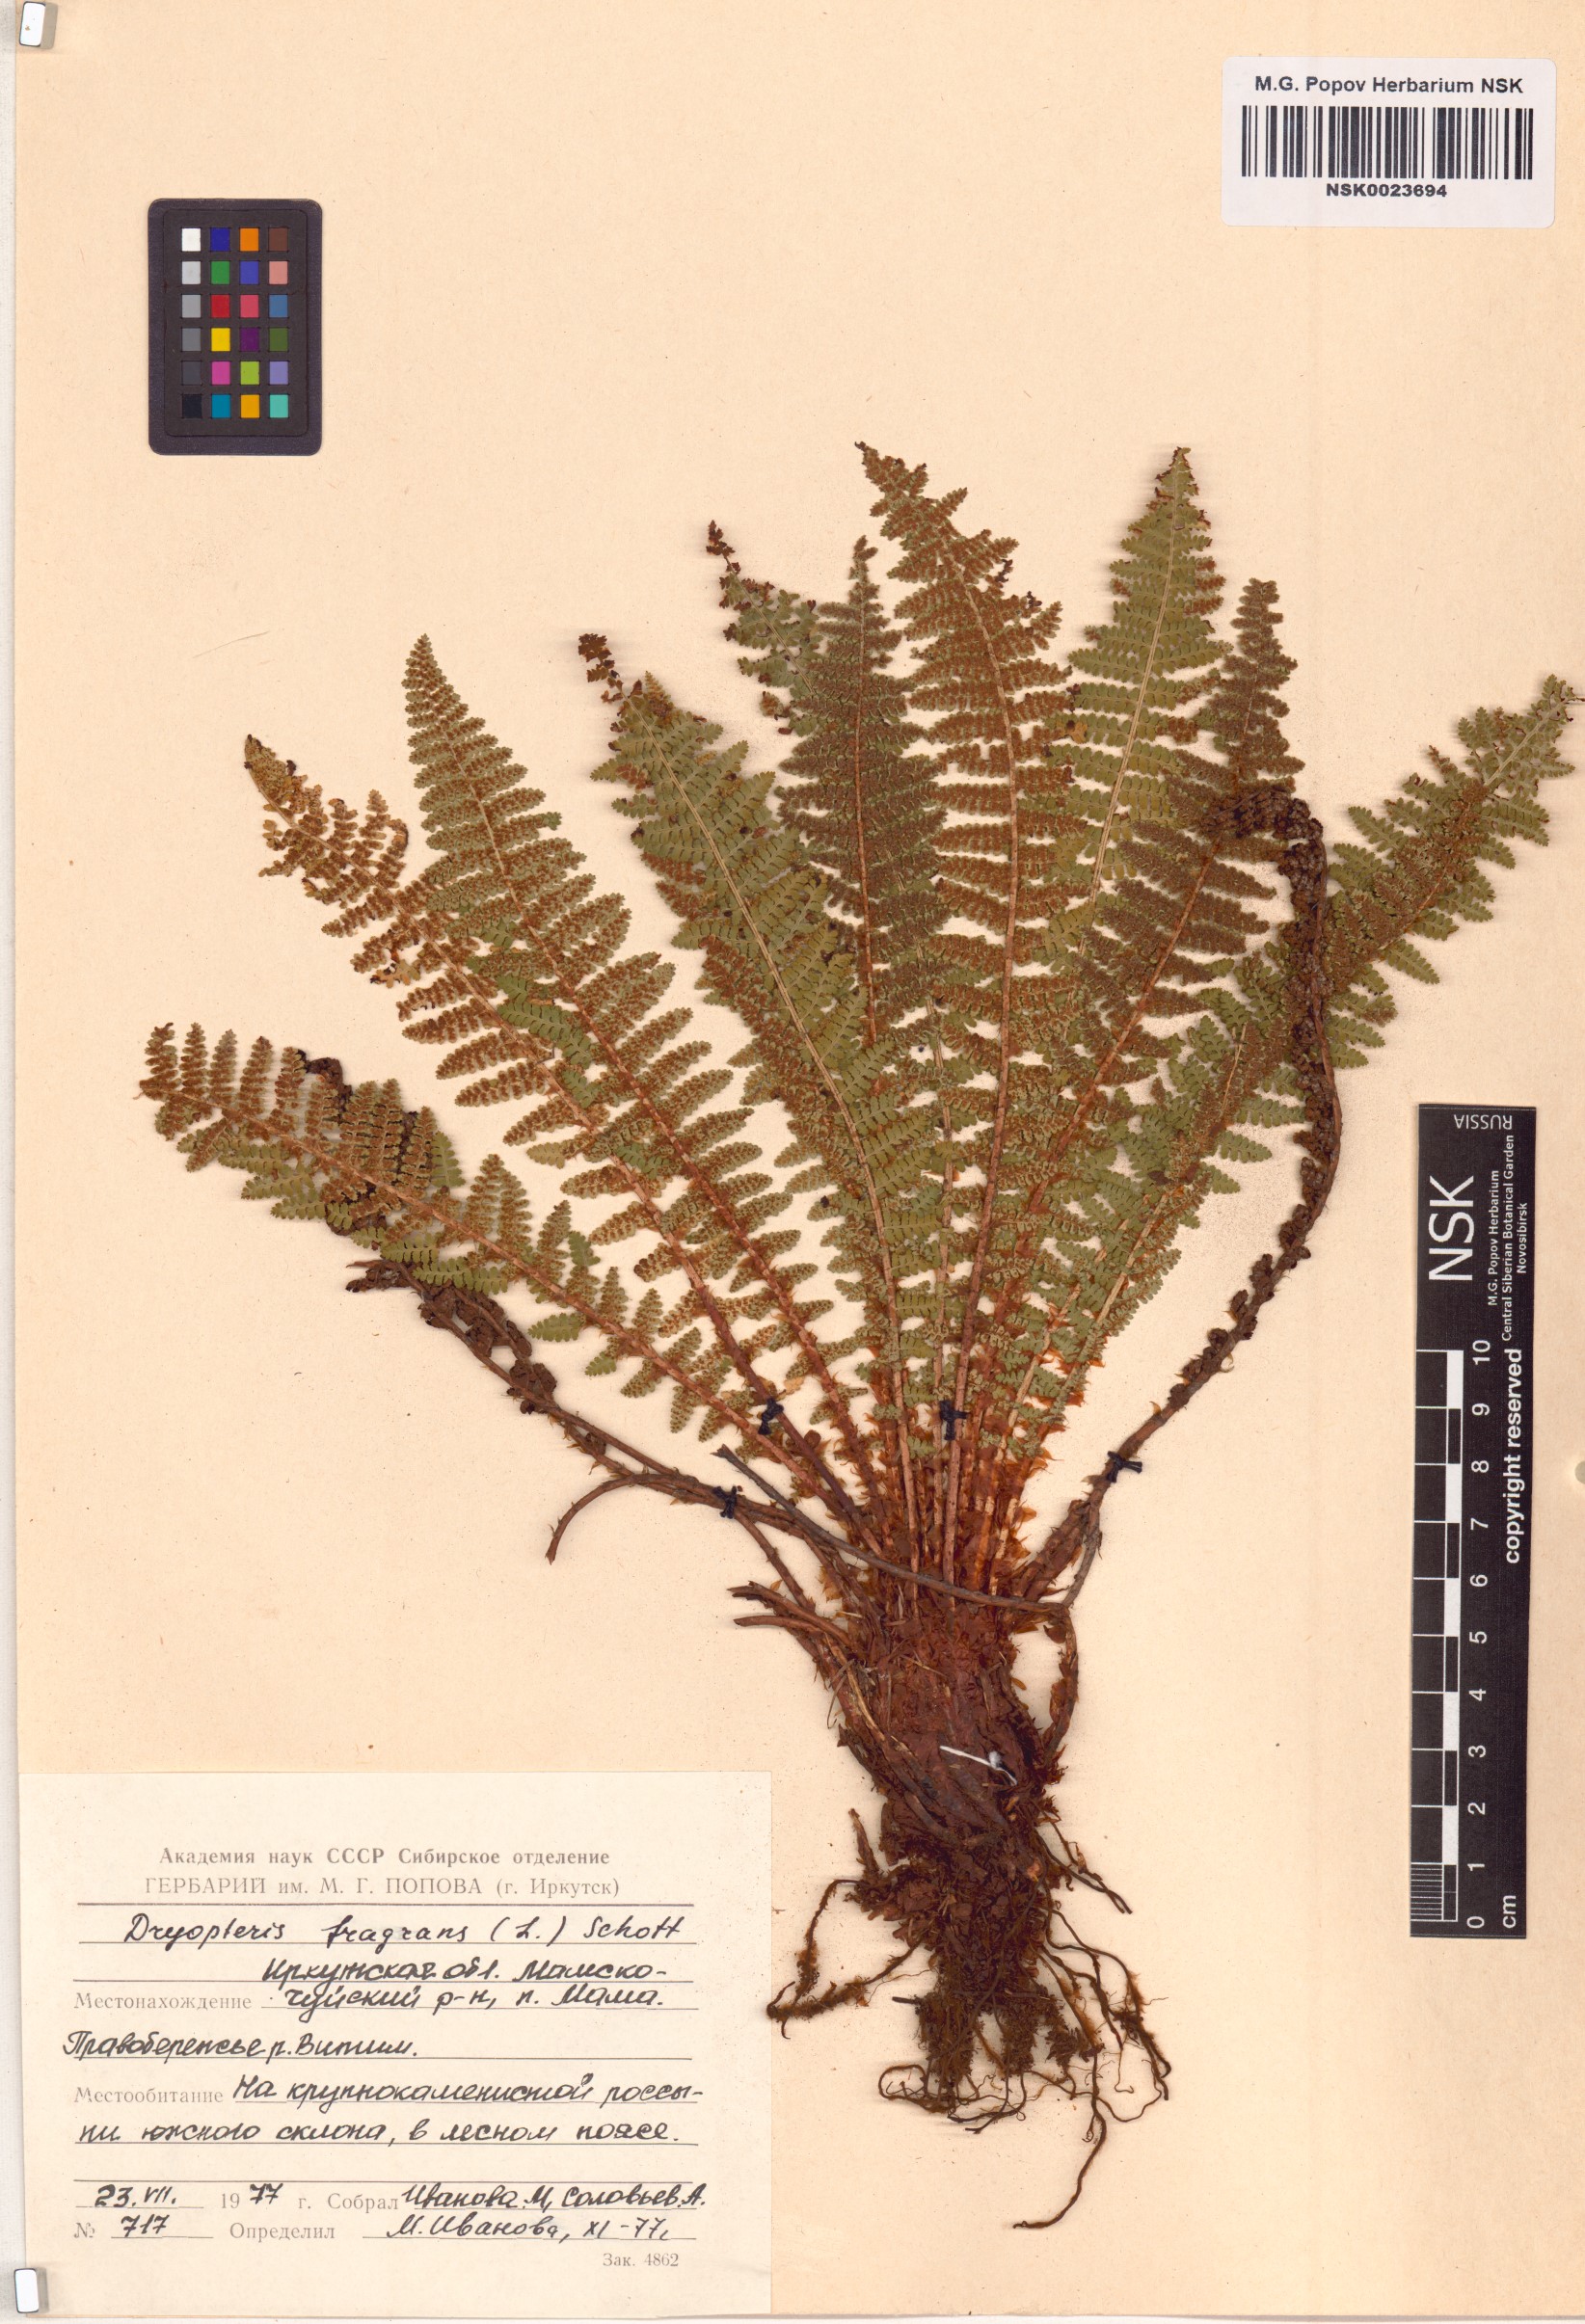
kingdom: Plantae
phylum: Tracheophyta
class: Polypodiopsida
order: Polypodiales
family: Dryopteridaceae
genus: Dryopteris
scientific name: Dryopteris fragrans
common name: Fragrant wood fern
